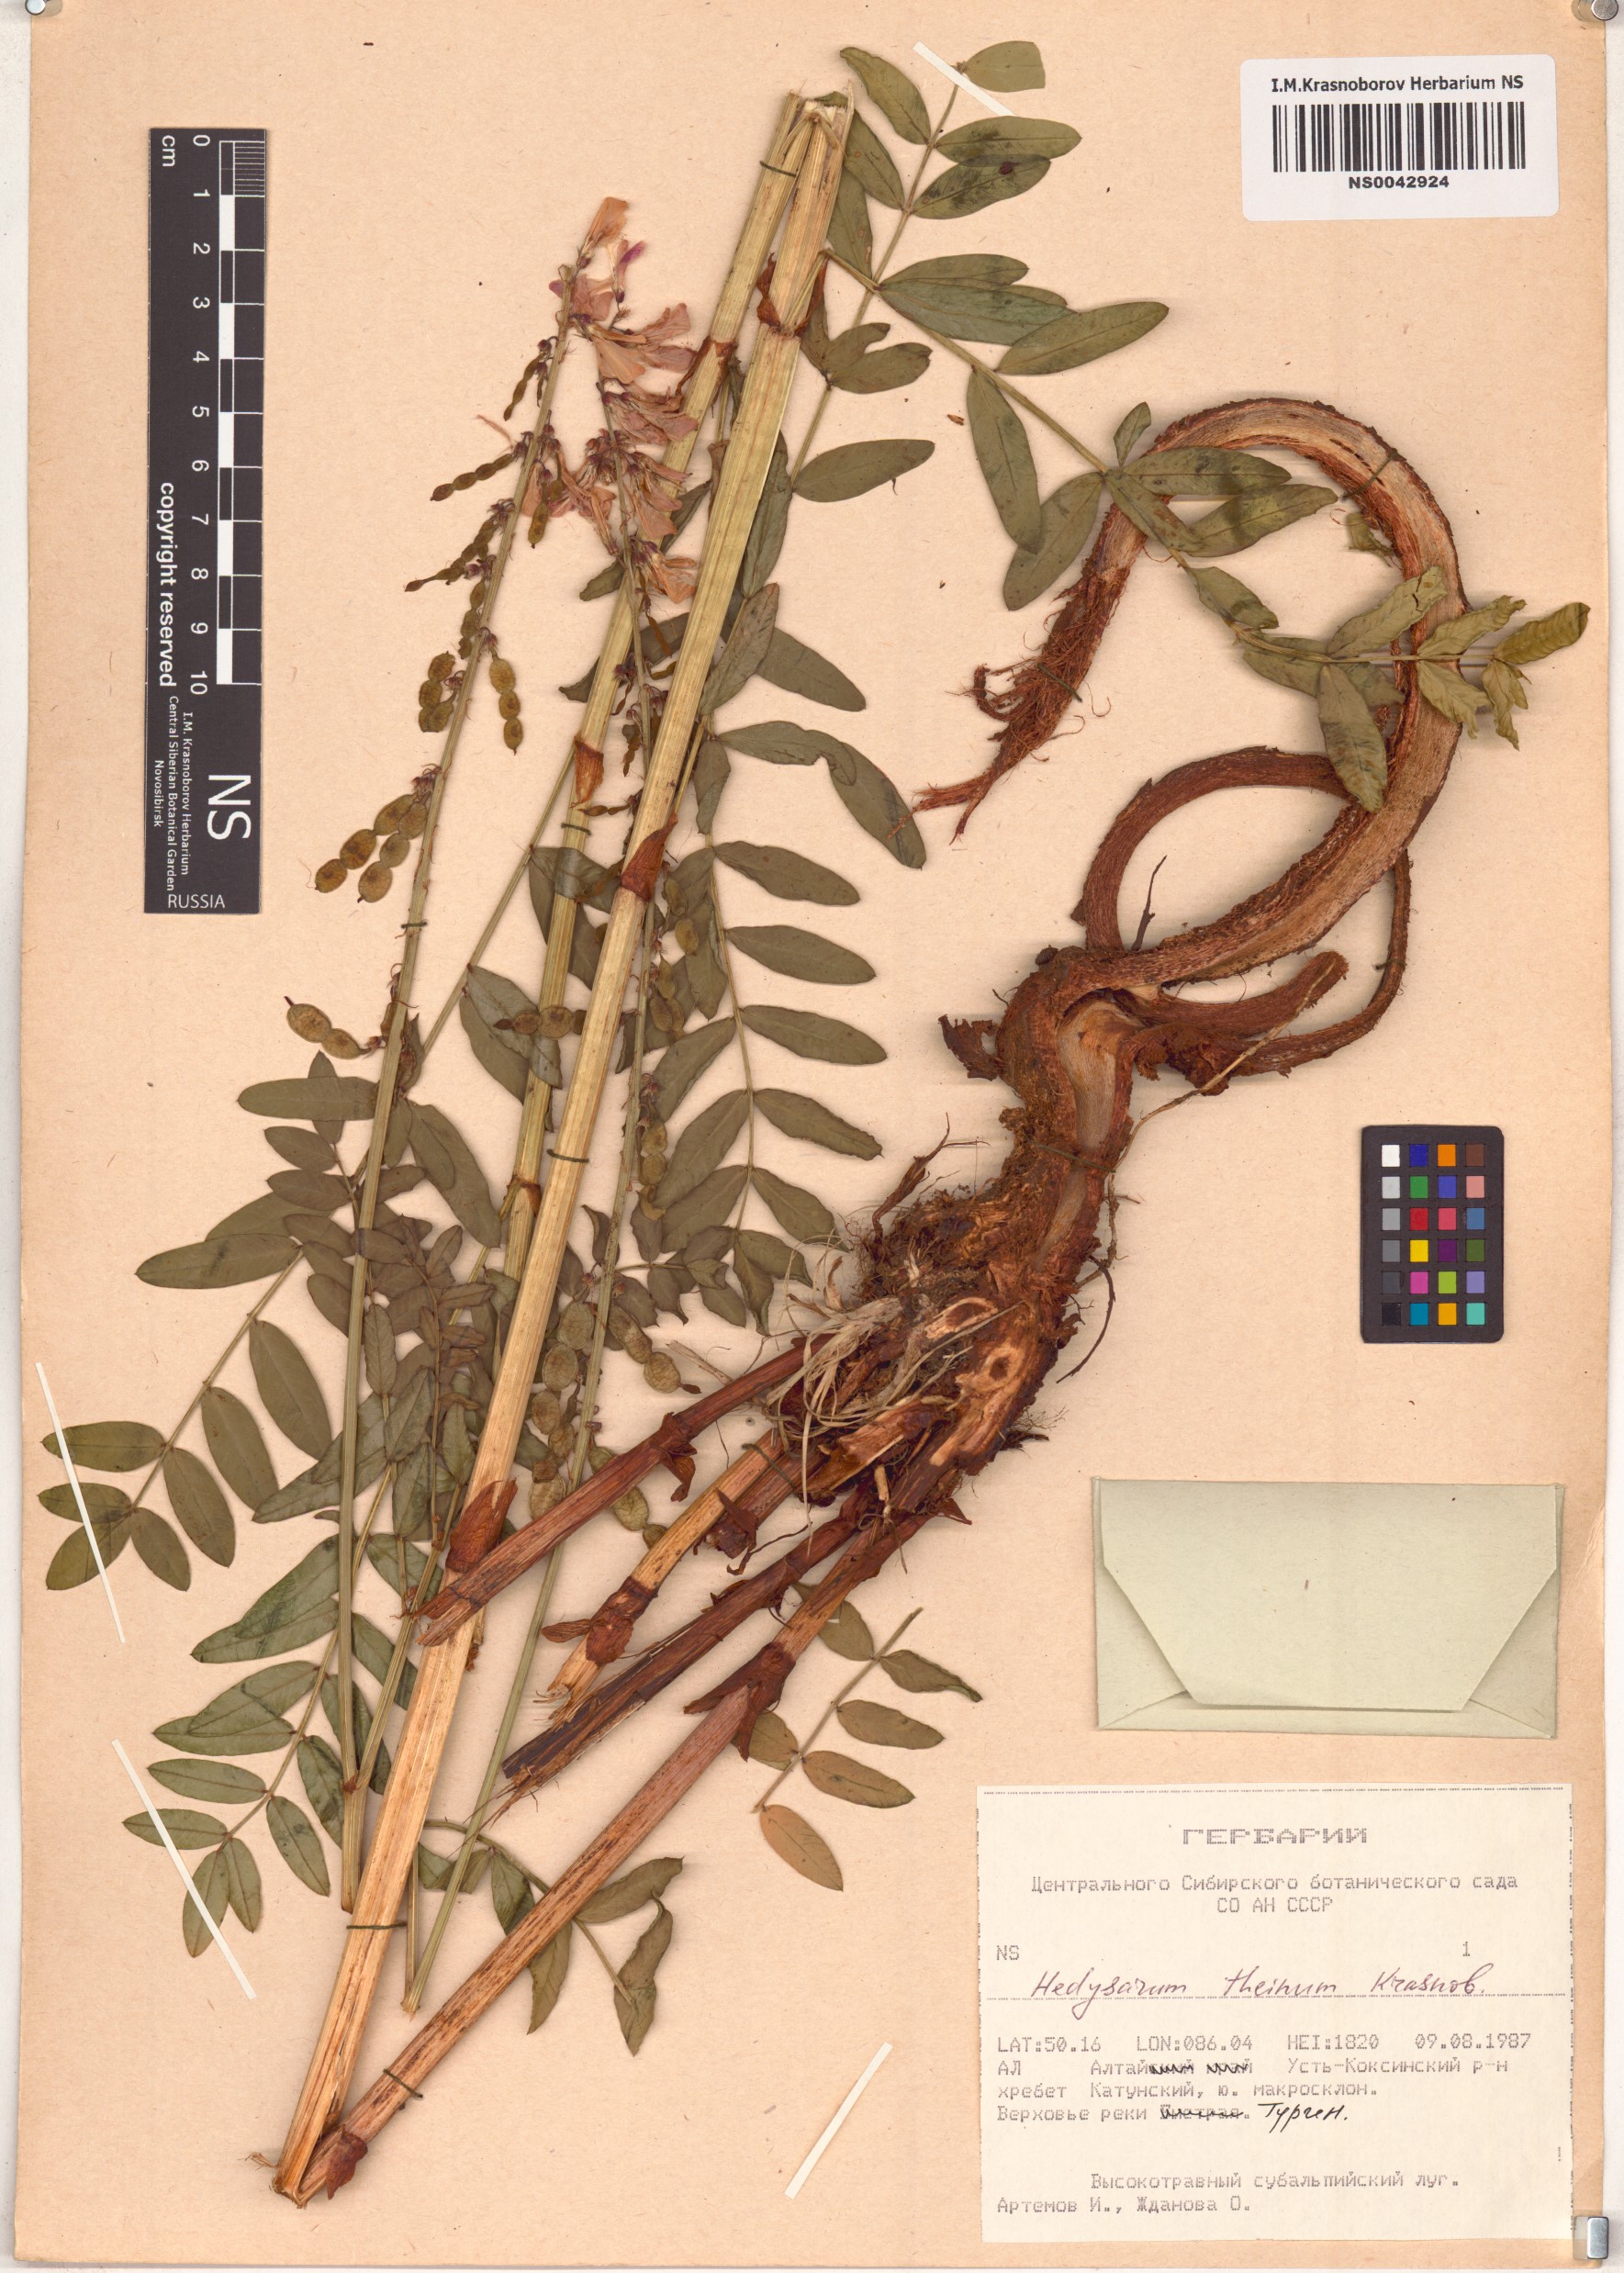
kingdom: Plantae
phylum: Tracheophyta
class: Magnoliopsida
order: Fabales
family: Fabaceae
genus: Hedysarum
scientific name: Hedysarum theinum
